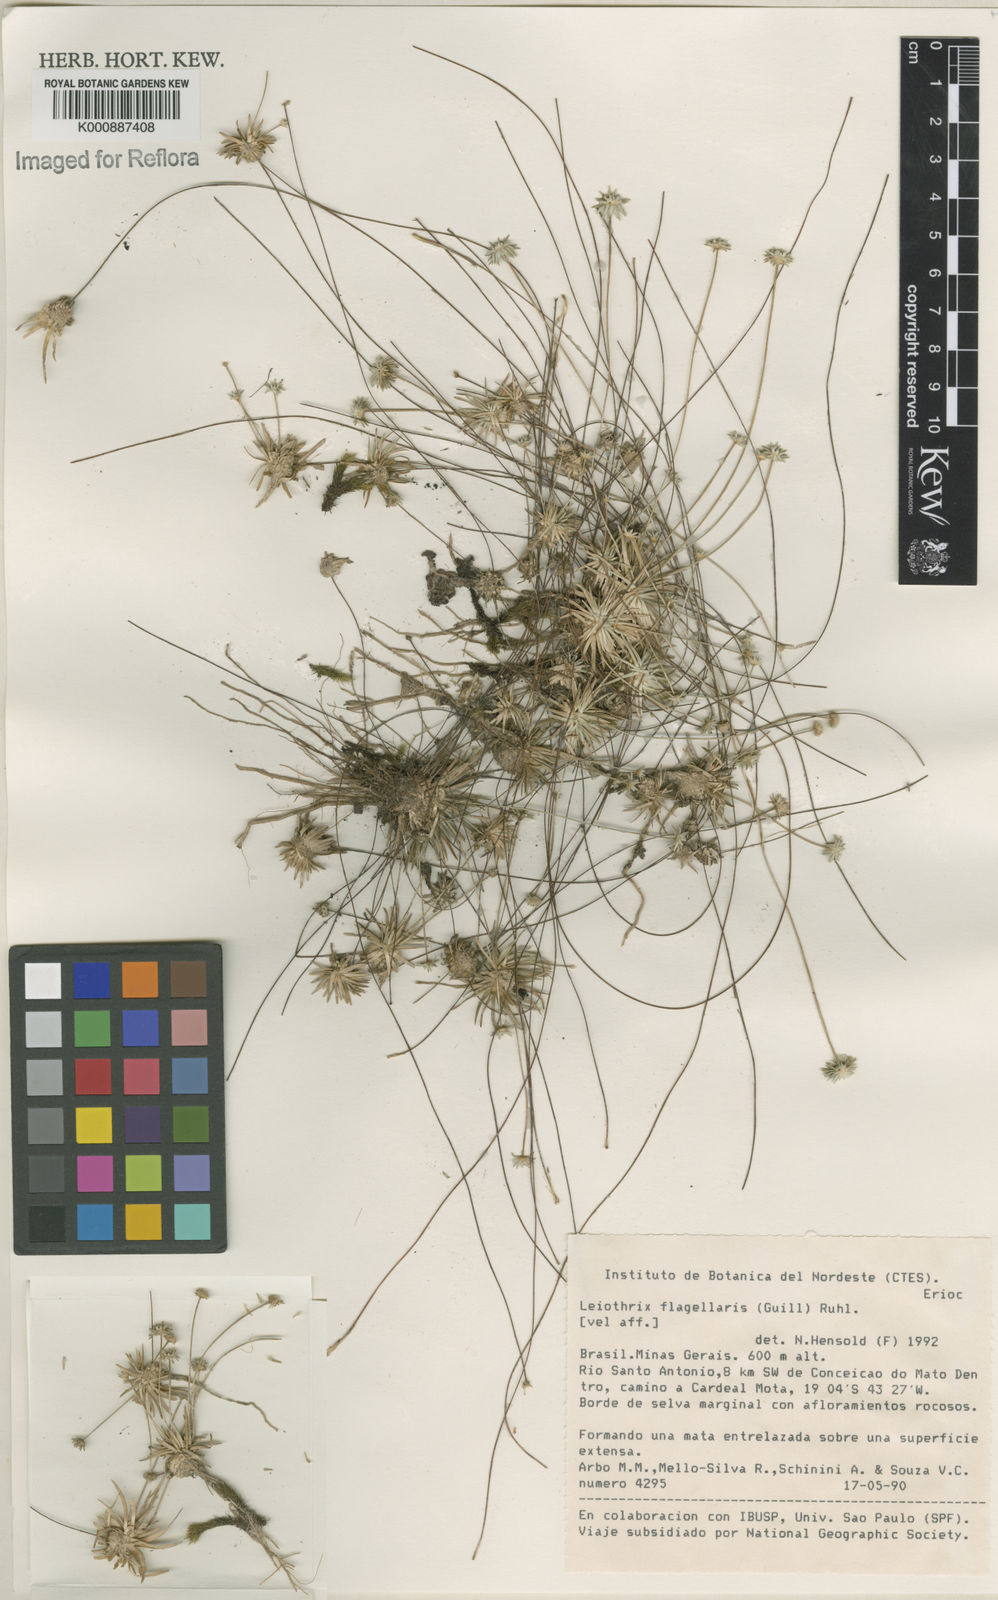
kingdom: Plantae
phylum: Tracheophyta
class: Liliopsida
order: Poales
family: Eriocaulaceae
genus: Leiothrix
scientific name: Leiothrix flagellaris
